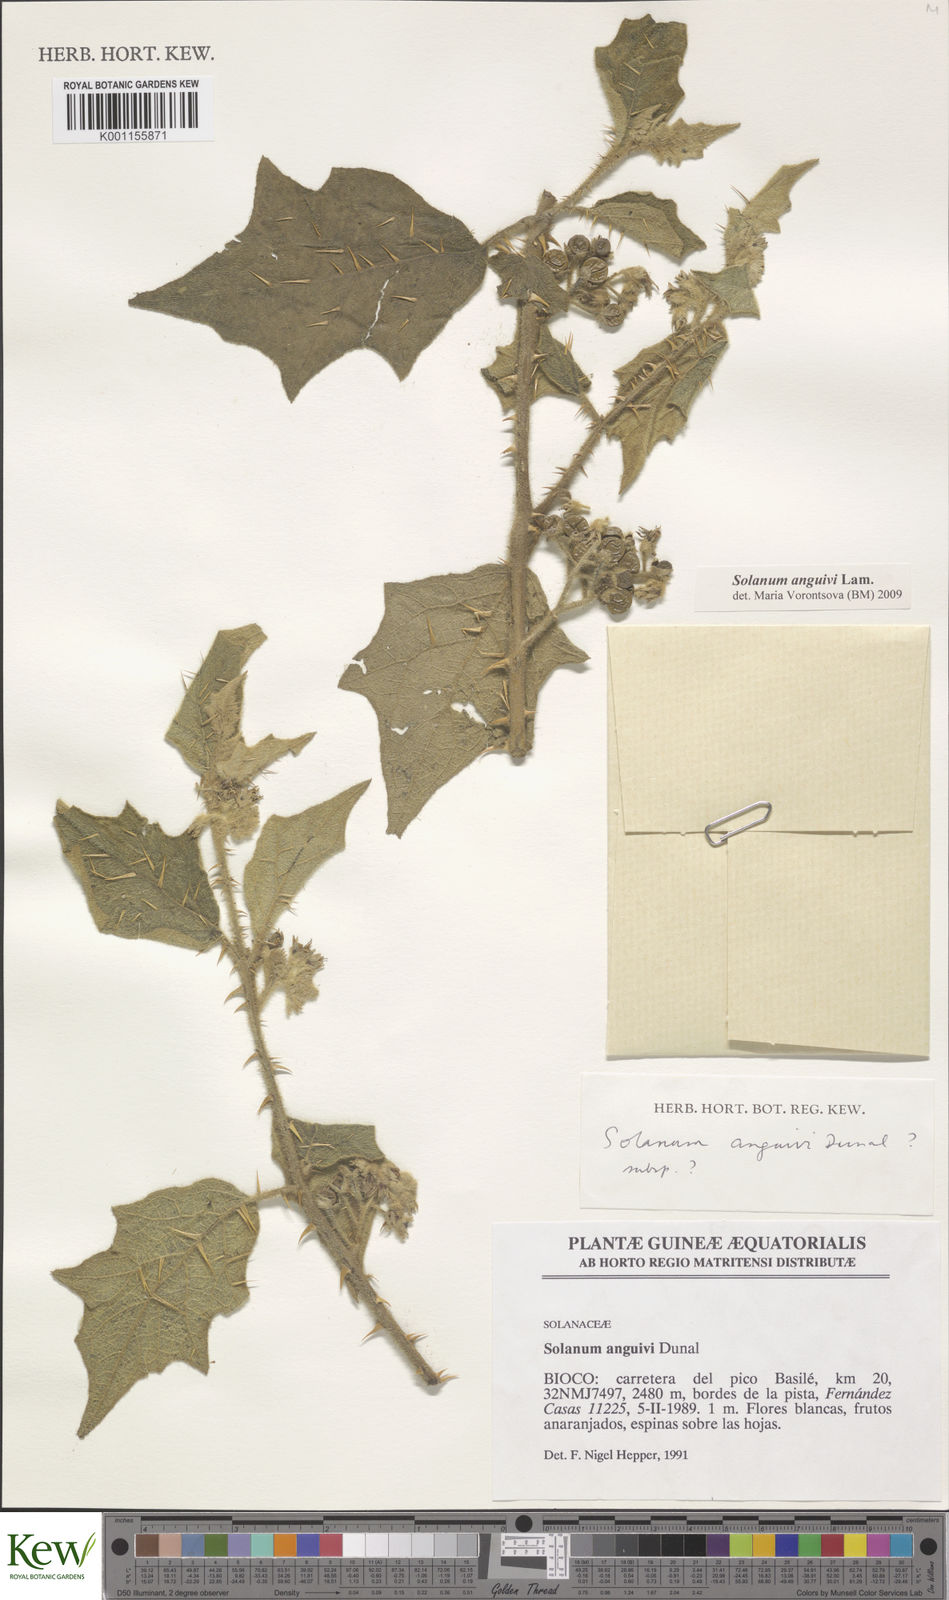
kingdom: Plantae
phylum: Tracheophyta
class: Magnoliopsida
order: Solanales
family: Solanaceae
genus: Solanum
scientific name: Solanum anguivi
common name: Forest bitterberry
